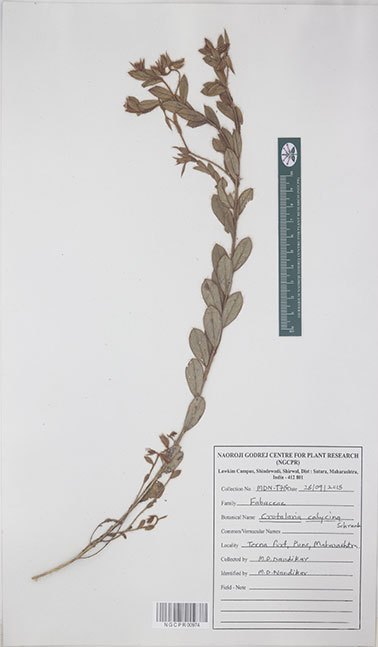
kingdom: Plantae
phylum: Tracheophyta
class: Magnoliopsida
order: Fabales
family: Fabaceae
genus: Crotalaria
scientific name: Crotalaria calycina
